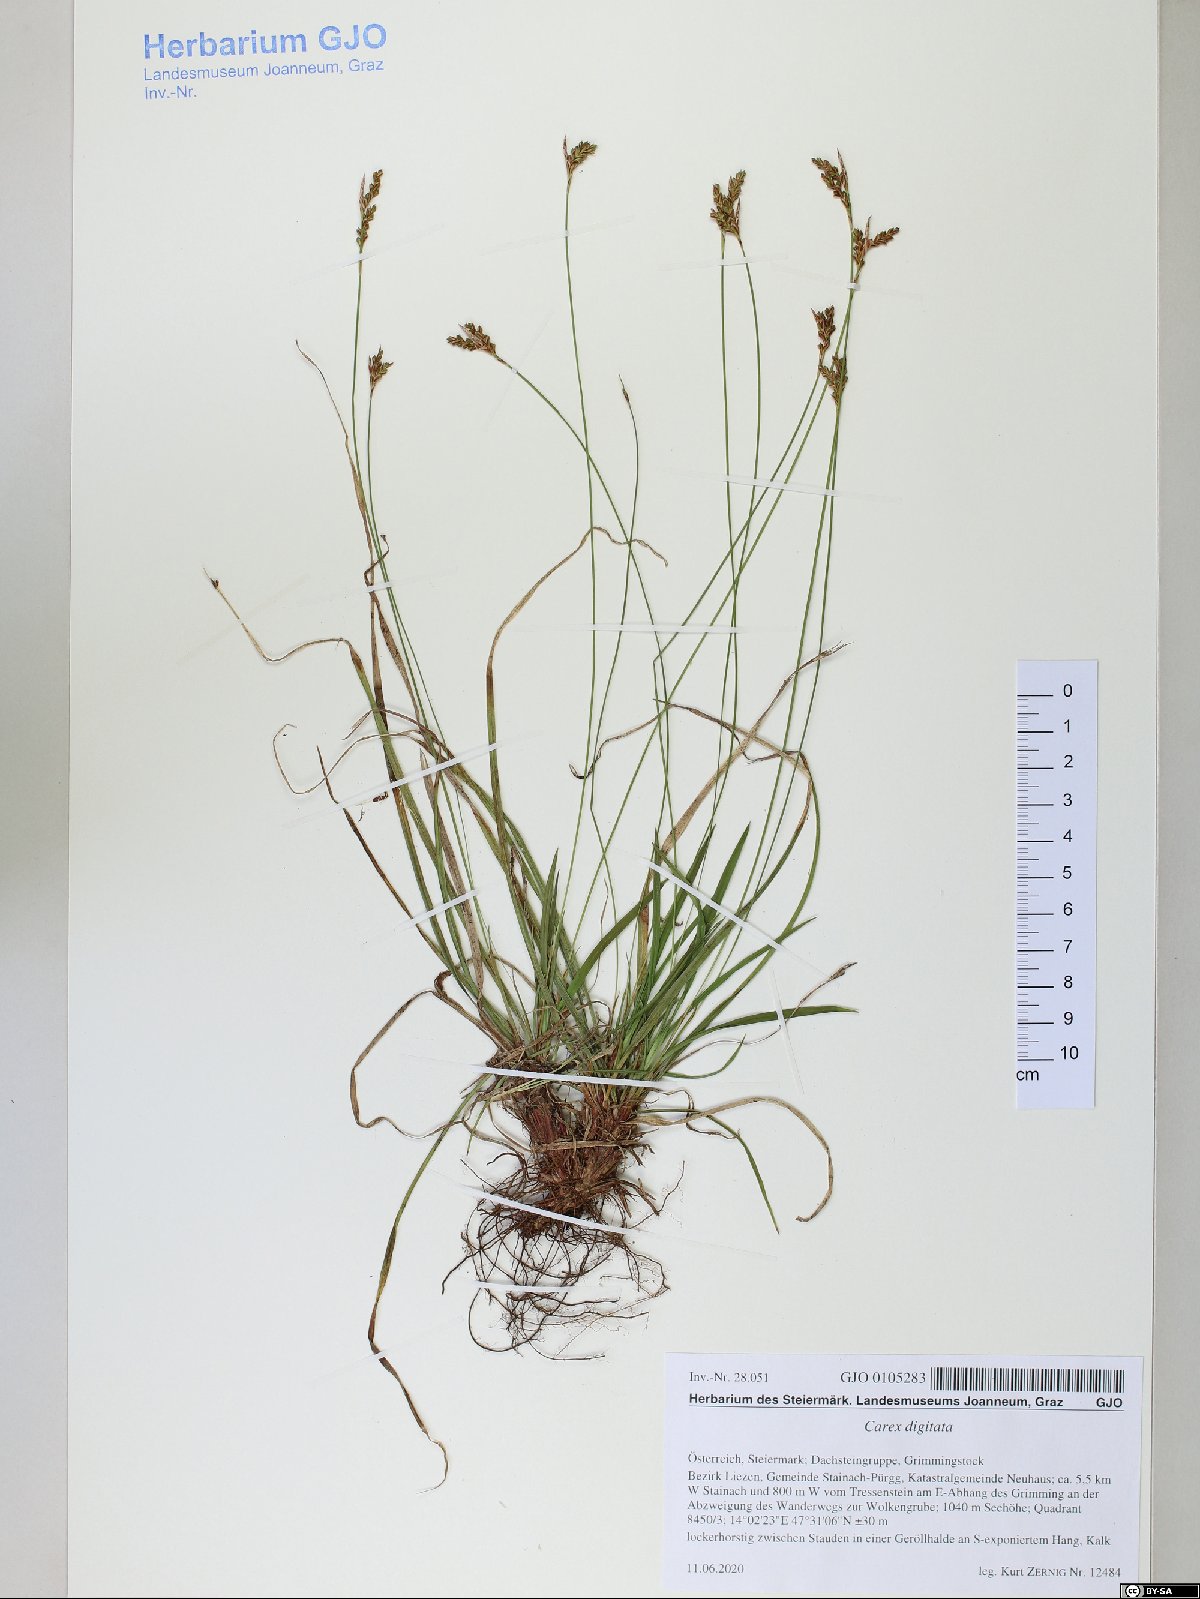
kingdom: Plantae
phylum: Tracheophyta
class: Liliopsida
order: Poales
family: Cyperaceae
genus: Carex
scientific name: Carex digitata
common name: Fingered sedge
